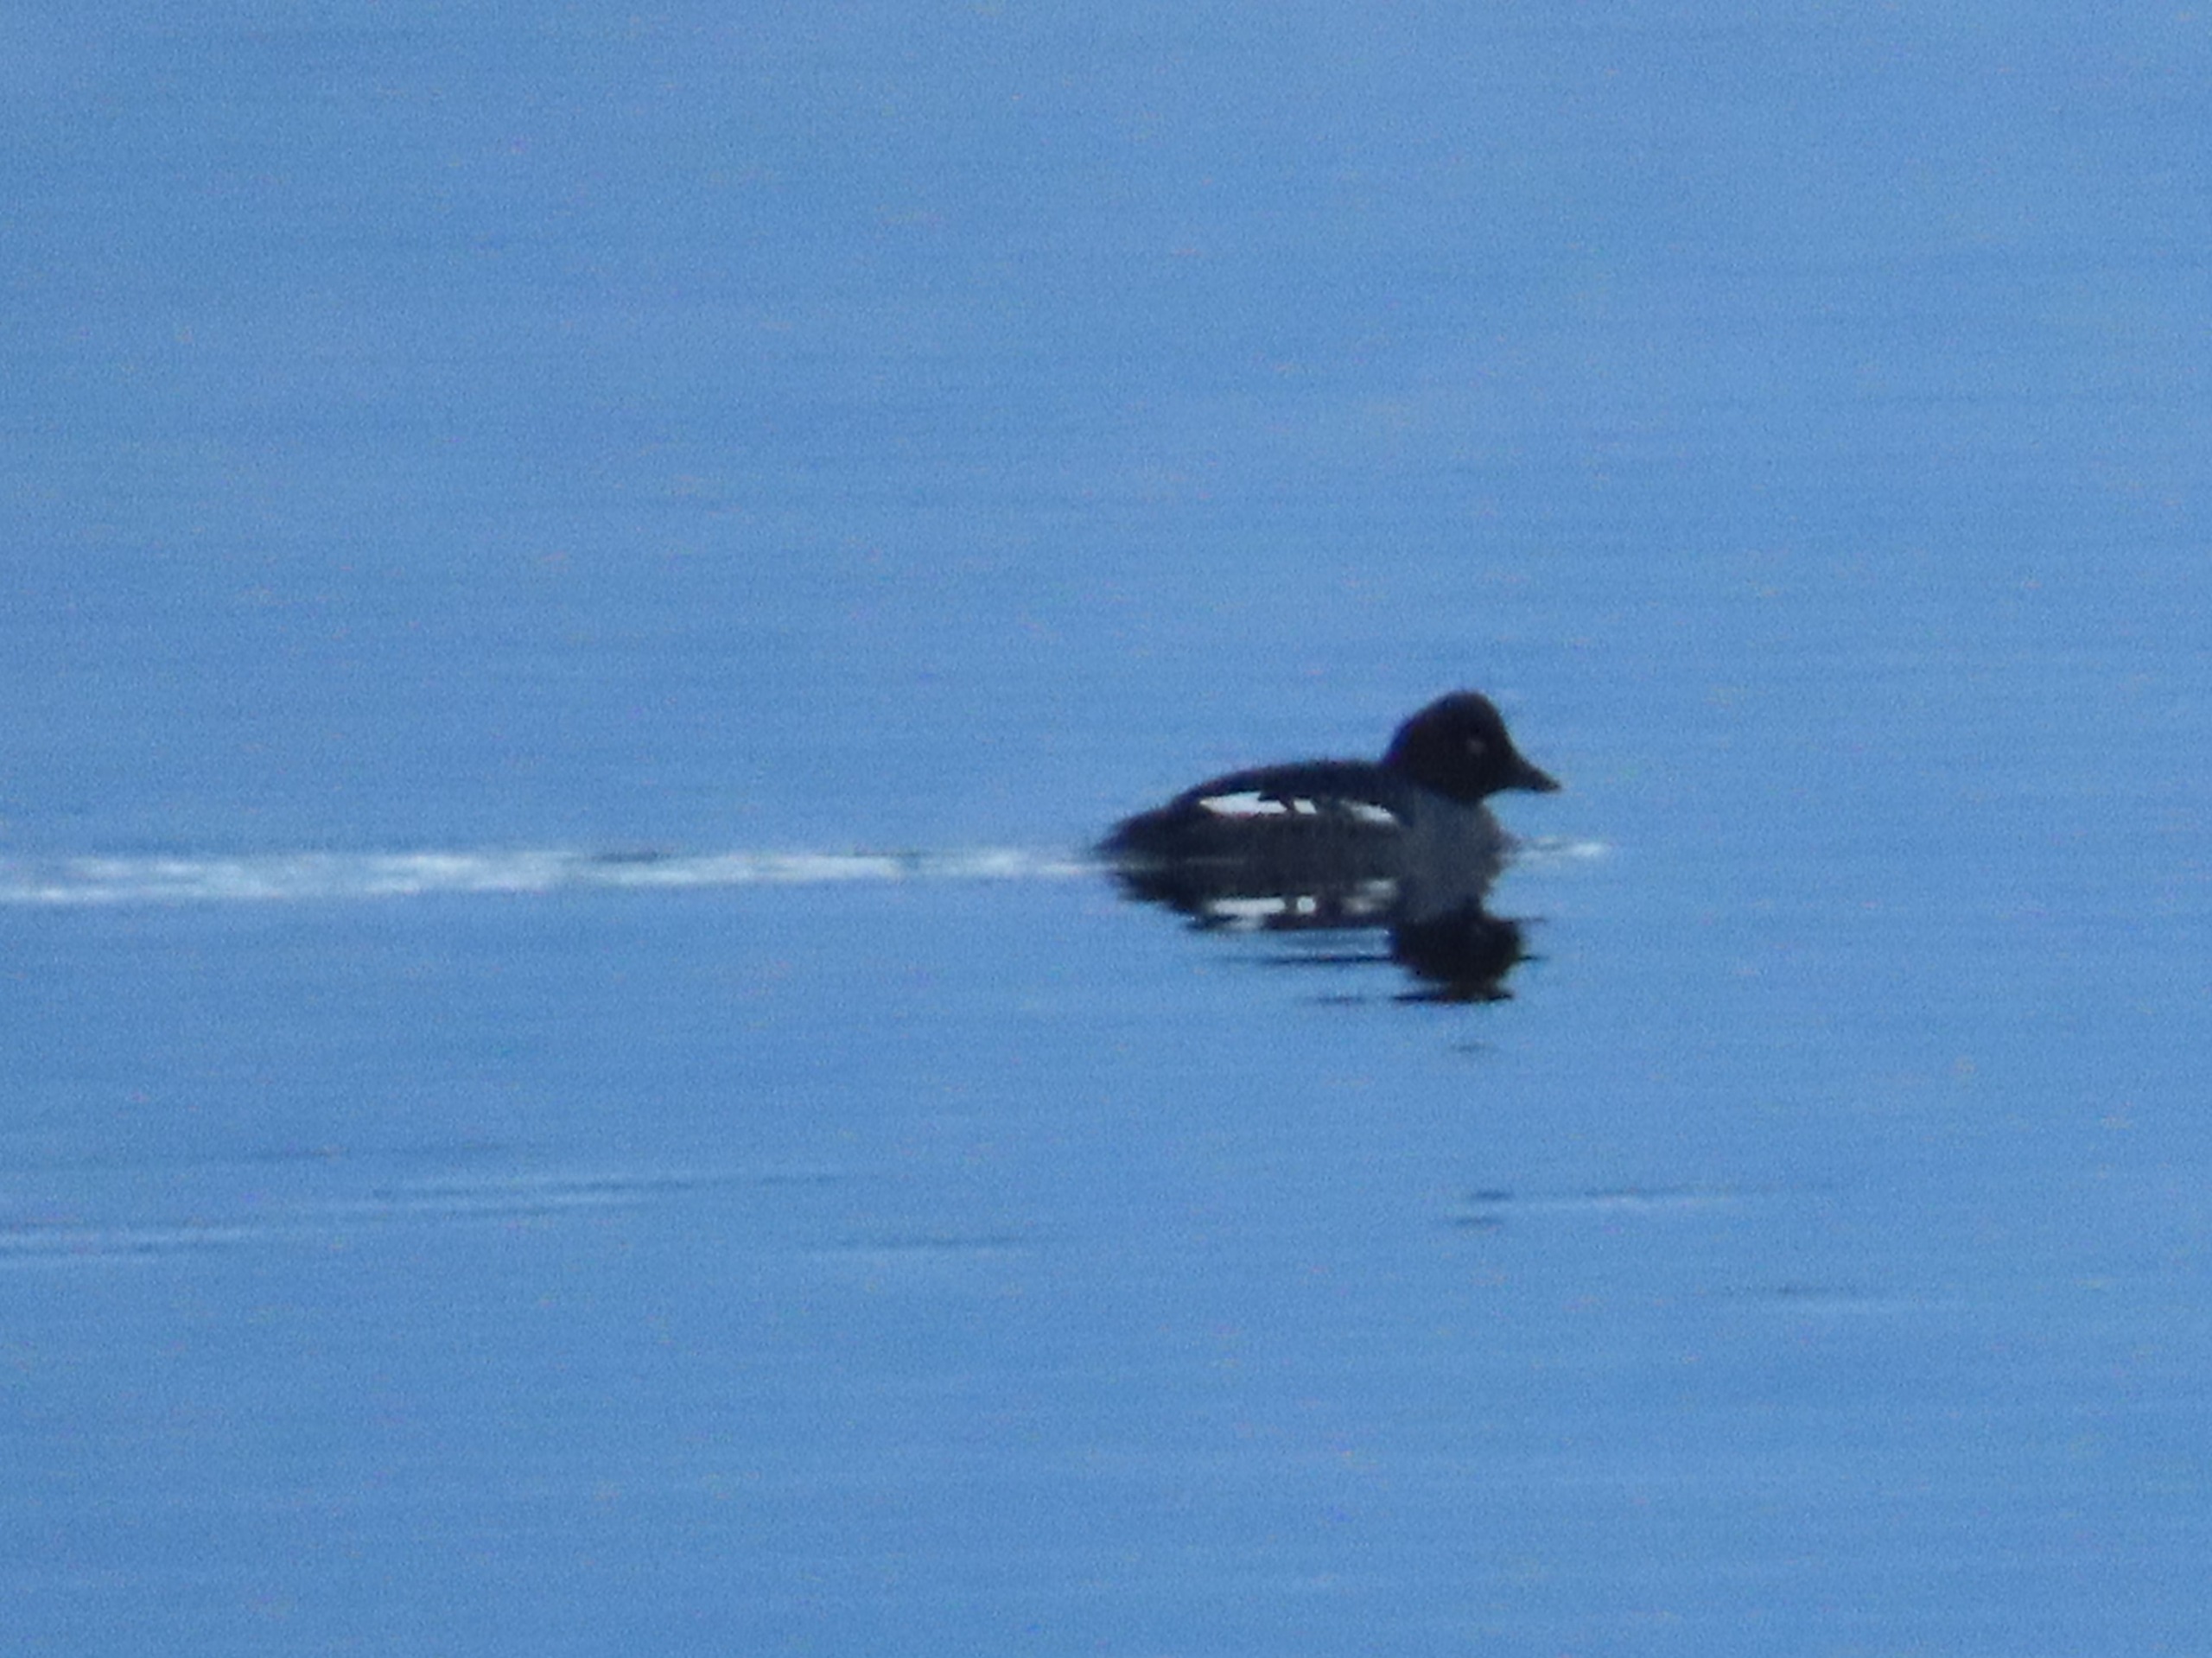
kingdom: Animalia
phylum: Chordata
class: Aves
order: Anseriformes
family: Anatidae
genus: Bucephala
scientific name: Bucephala clangula
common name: Hvinand
